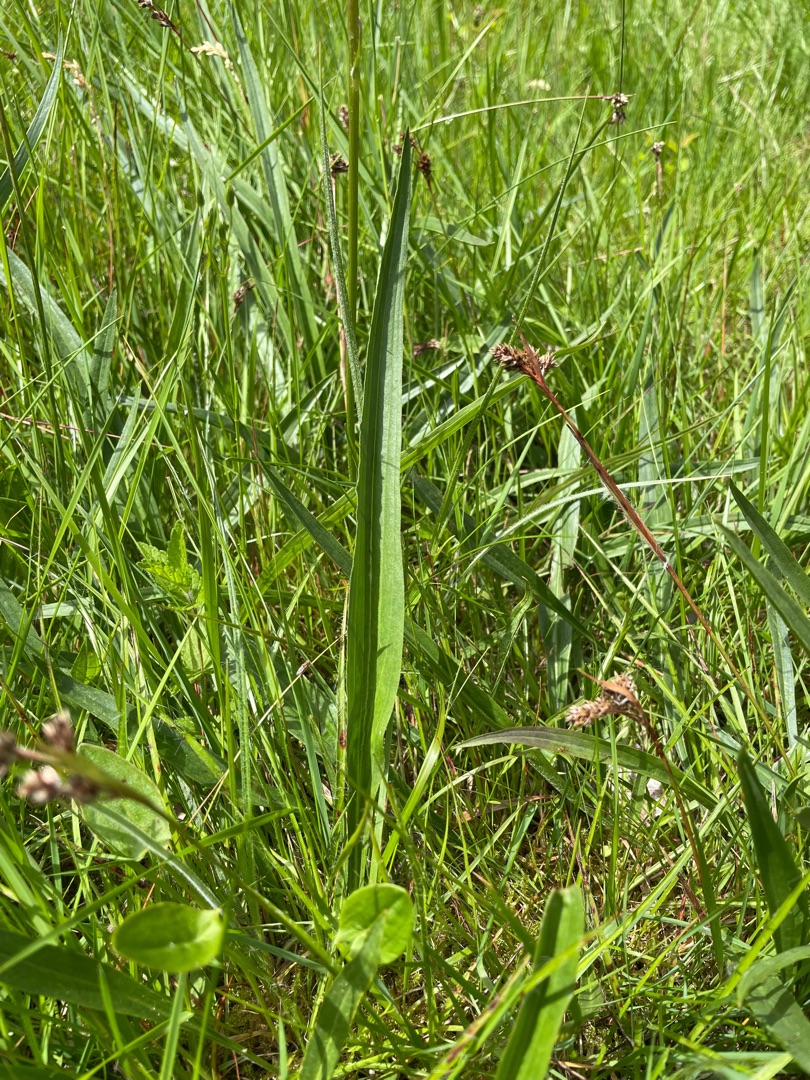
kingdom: Plantae
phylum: Tracheophyta
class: Magnoliopsida
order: Asterales
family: Asteraceae
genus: Scorzonera
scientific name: Scorzonera humilis
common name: Lav skorsoner
